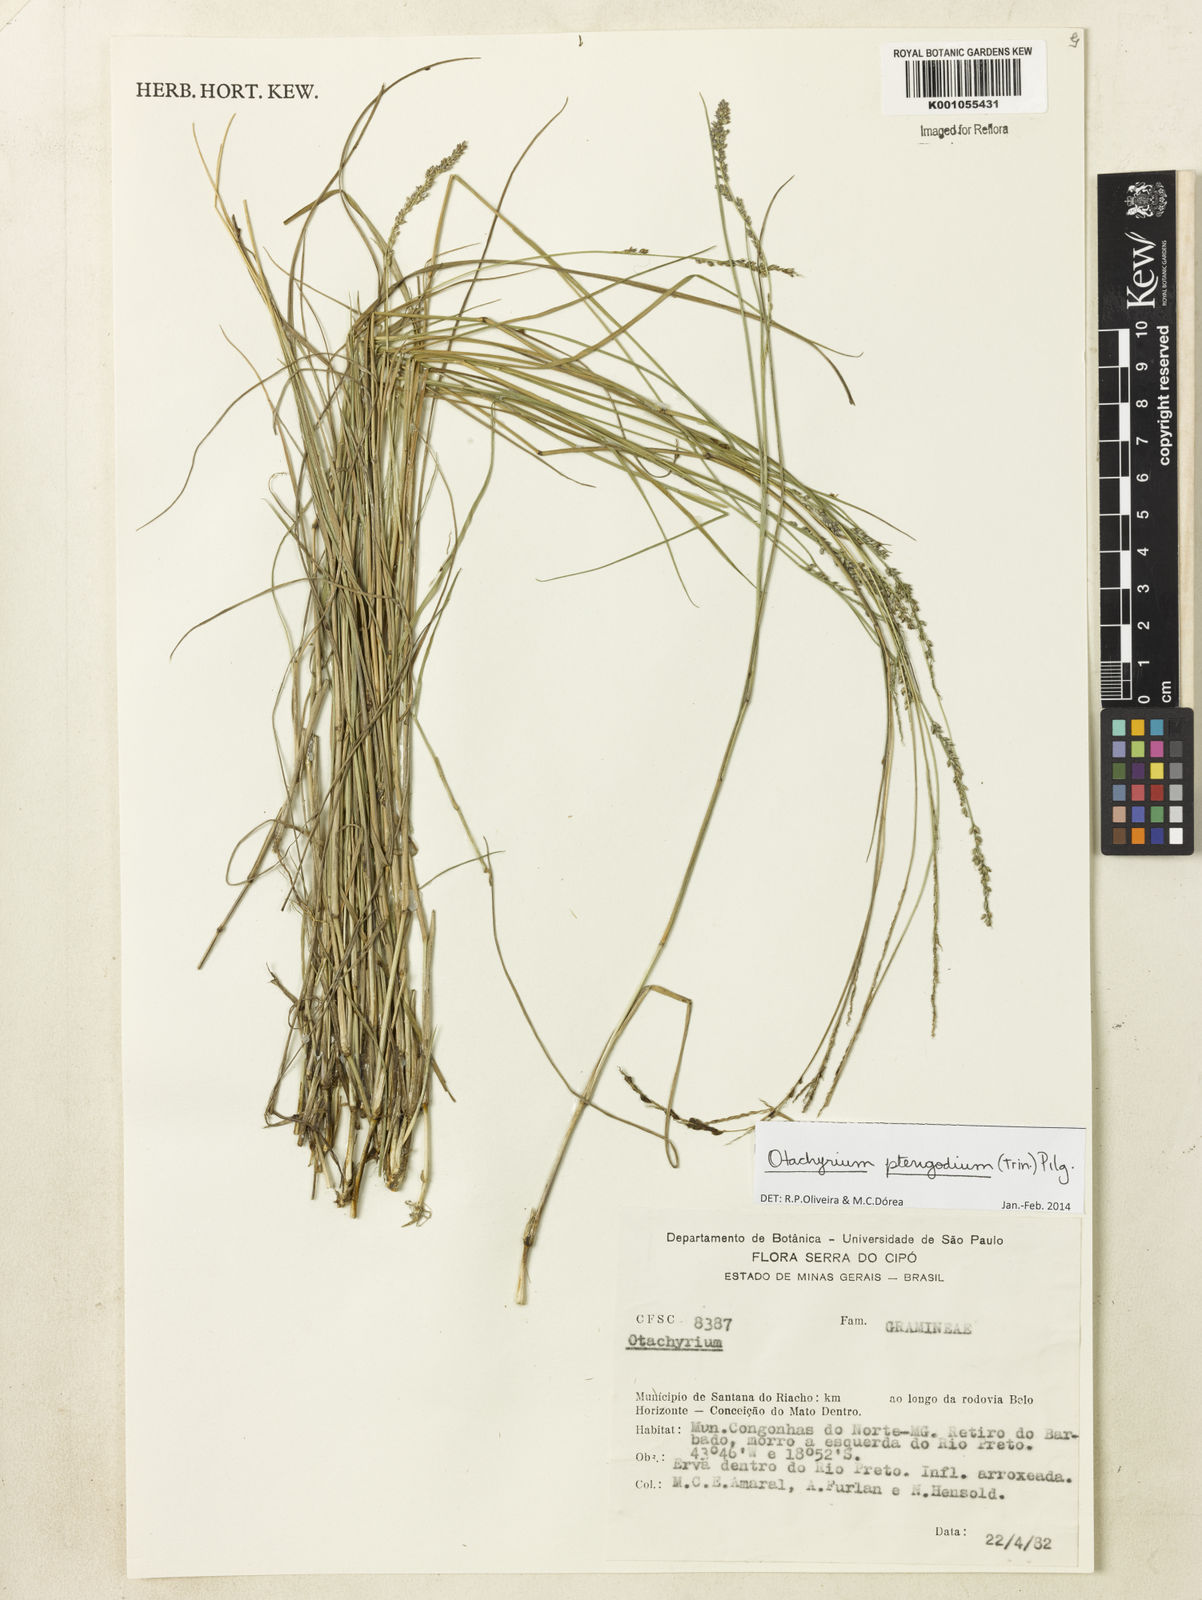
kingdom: Plantae
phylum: Tracheophyta
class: Liliopsida
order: Poales
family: Poaceae
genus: Otachyrium
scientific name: Otachyrium pterigodium
